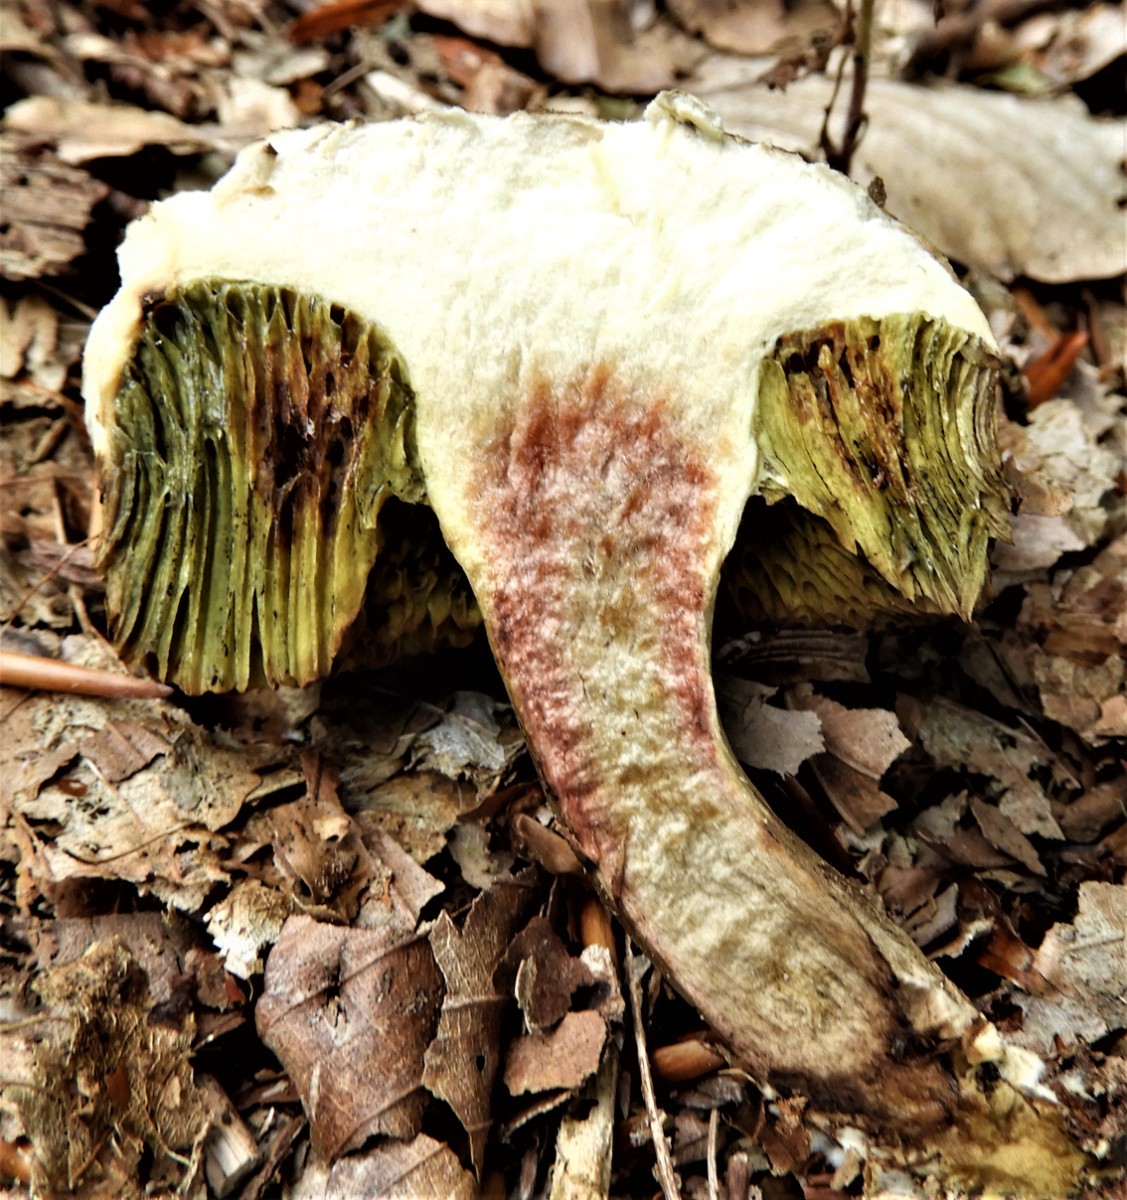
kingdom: Fungi
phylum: Basidiomycota
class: Agaricomycetes
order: Boletales
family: Boletaceae
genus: Xerocomellus
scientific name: Xerocomellus porosporus
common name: hvidsprukken rørhat
